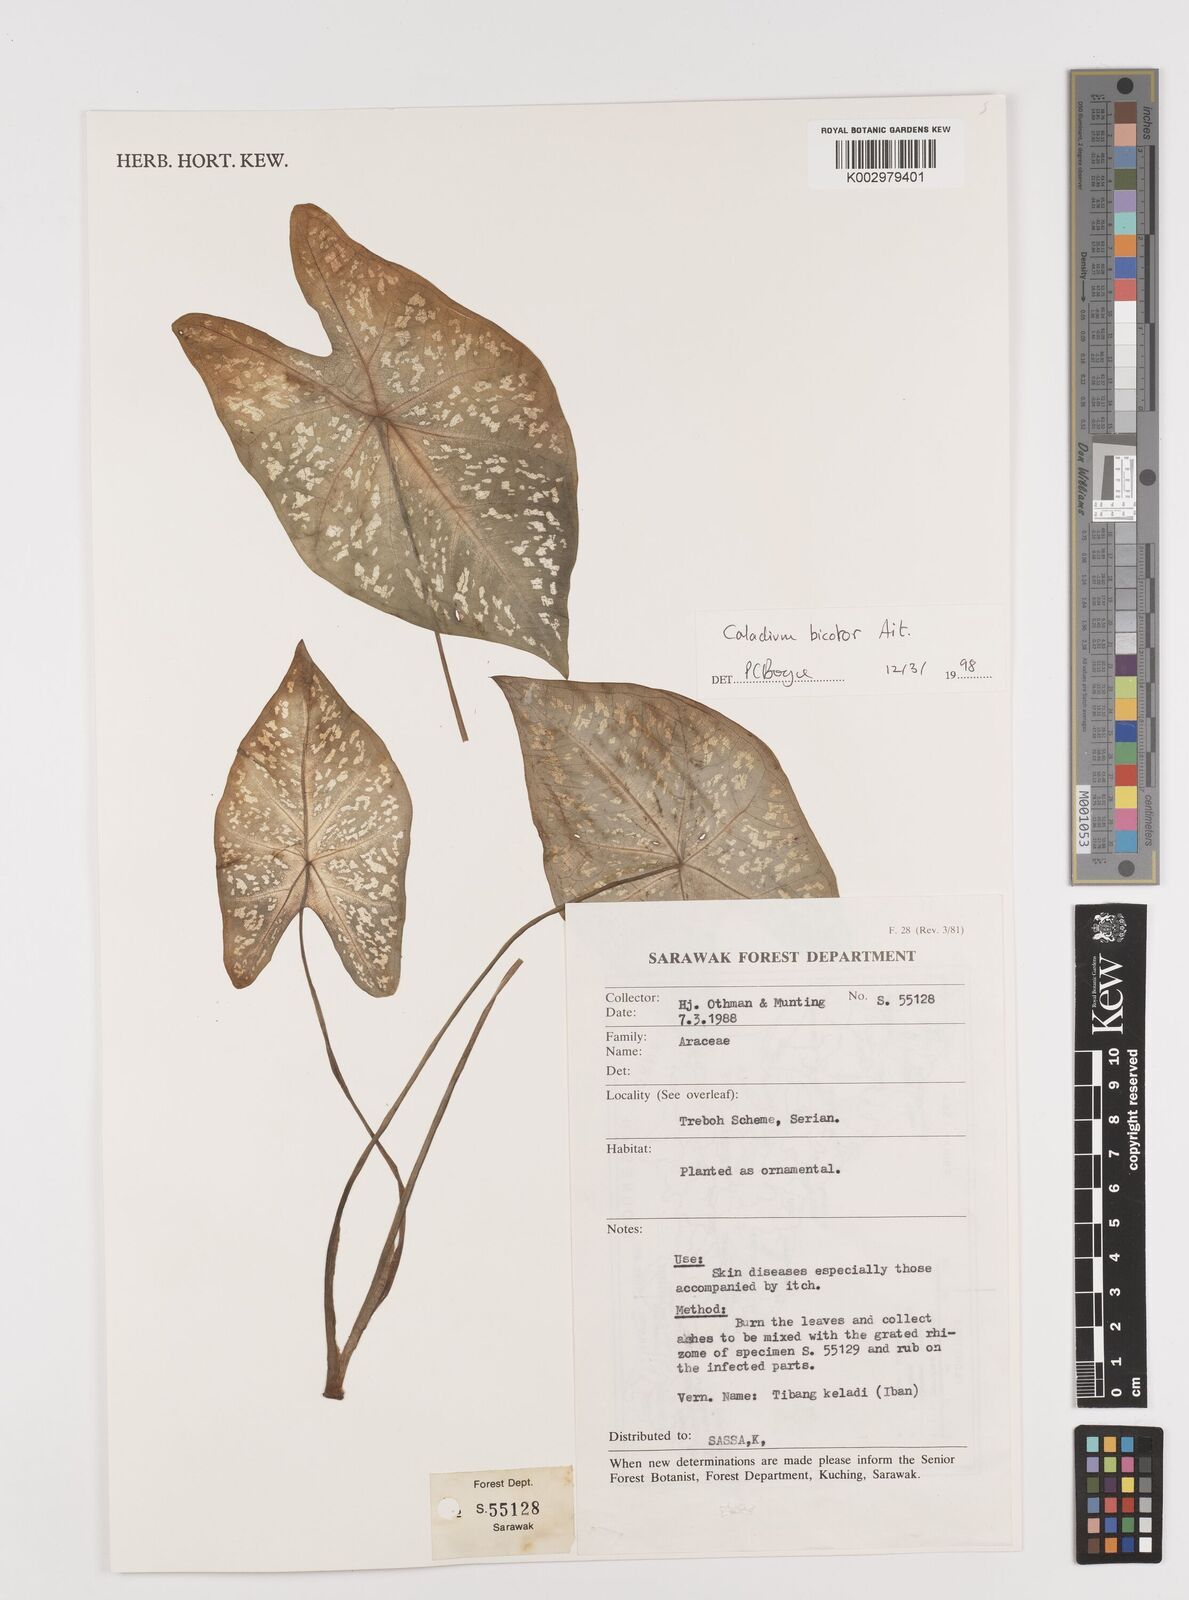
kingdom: Plantae
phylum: Tracheophyta
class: Liliopsida
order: Alismatales
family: Araceae
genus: Caladium
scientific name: Caladium bicolor
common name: Artist's pallet
